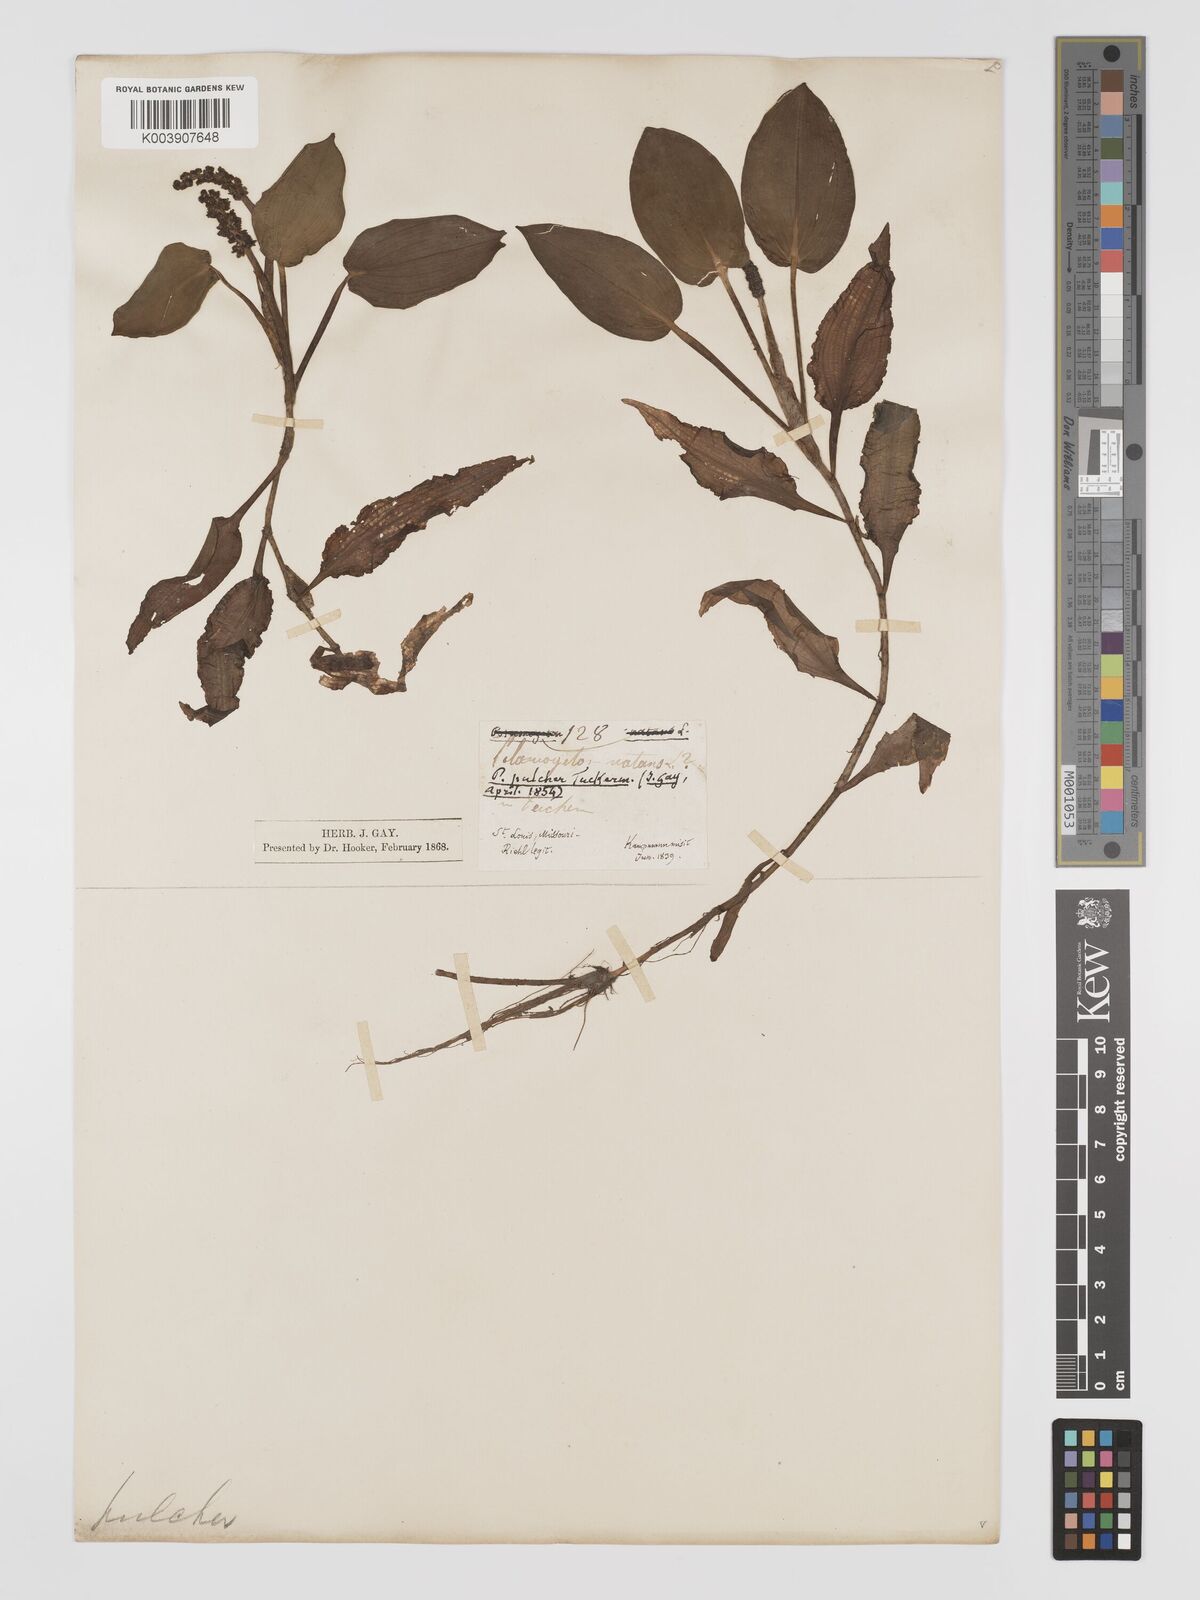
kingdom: Plantae
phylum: Tracheophyta
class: Liliopsida
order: Alismatales
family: Potamogetonaceae
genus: Potamogeton
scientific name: Potamogeton pulcher
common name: Heart-leaved pondweed
